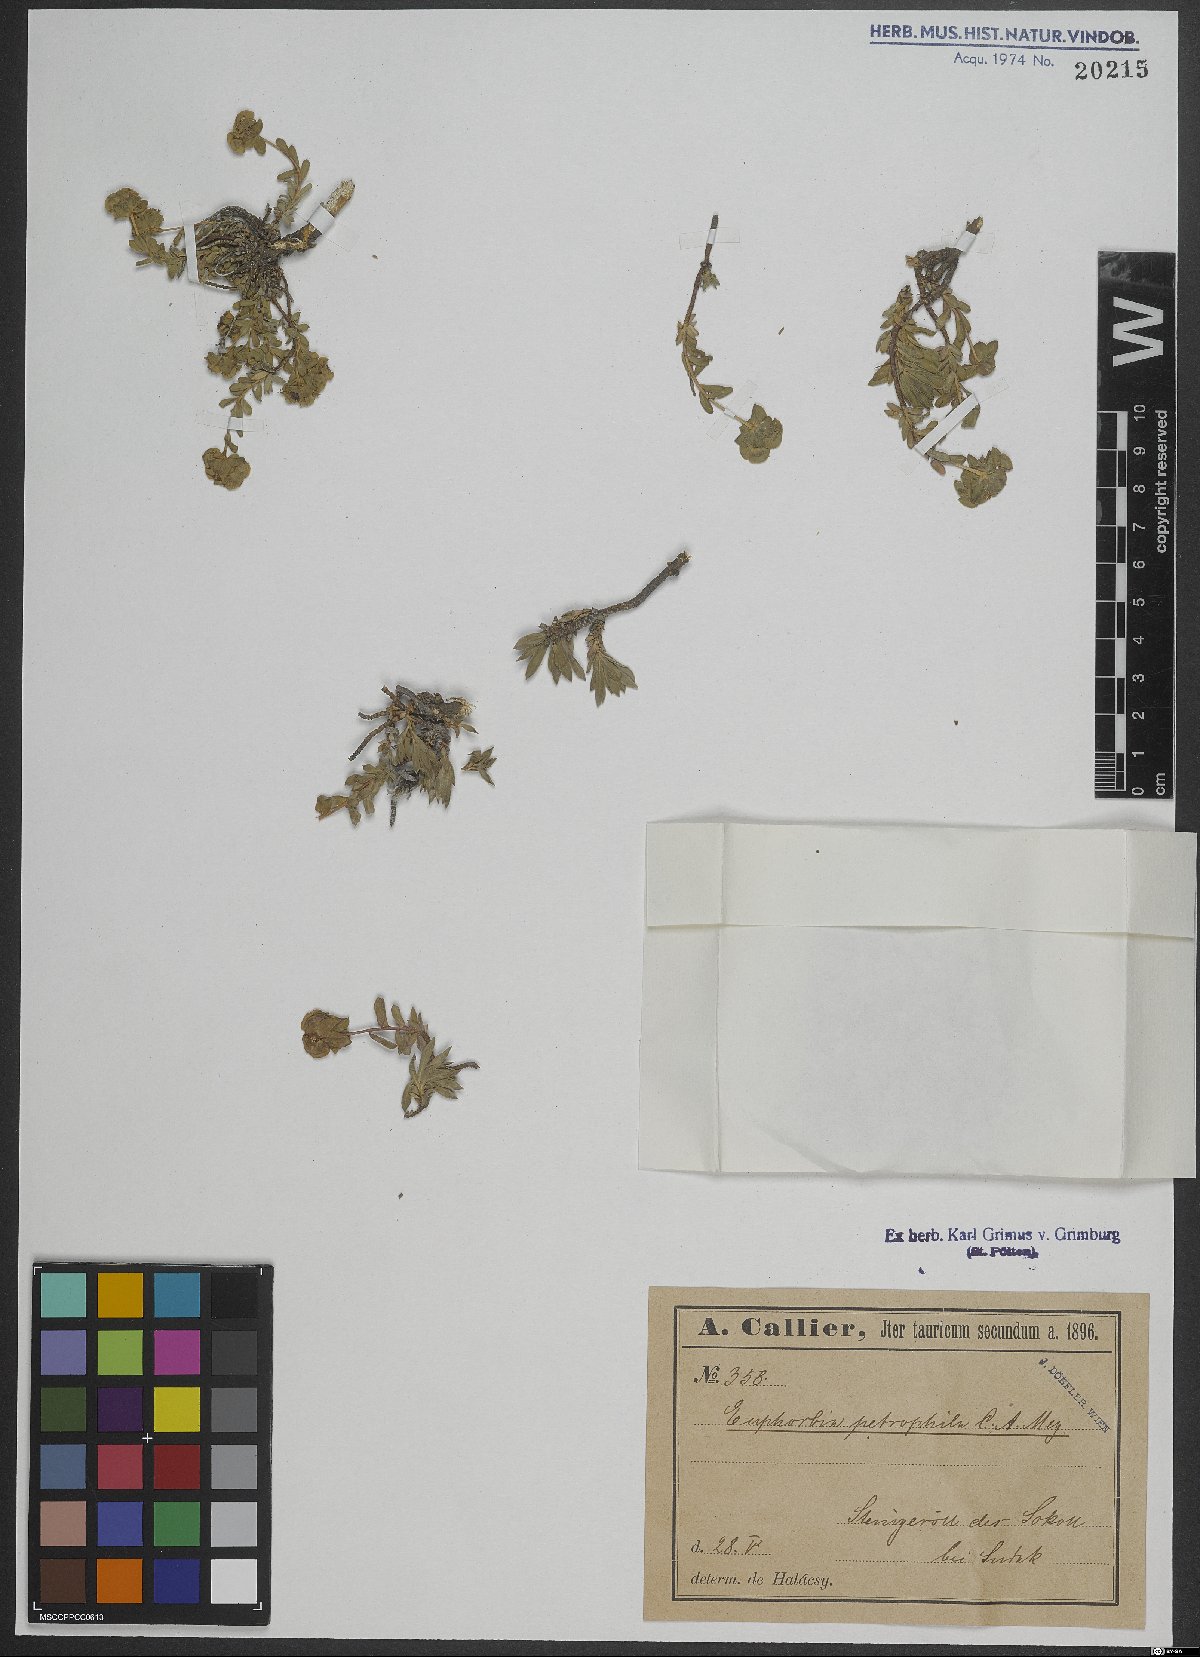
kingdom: Plantae
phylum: Tracheophyta
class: Magnoliopsida
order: Malpighiales
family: Euphorbiaceae
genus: Euphorbia
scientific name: Euphorbia petrophila
